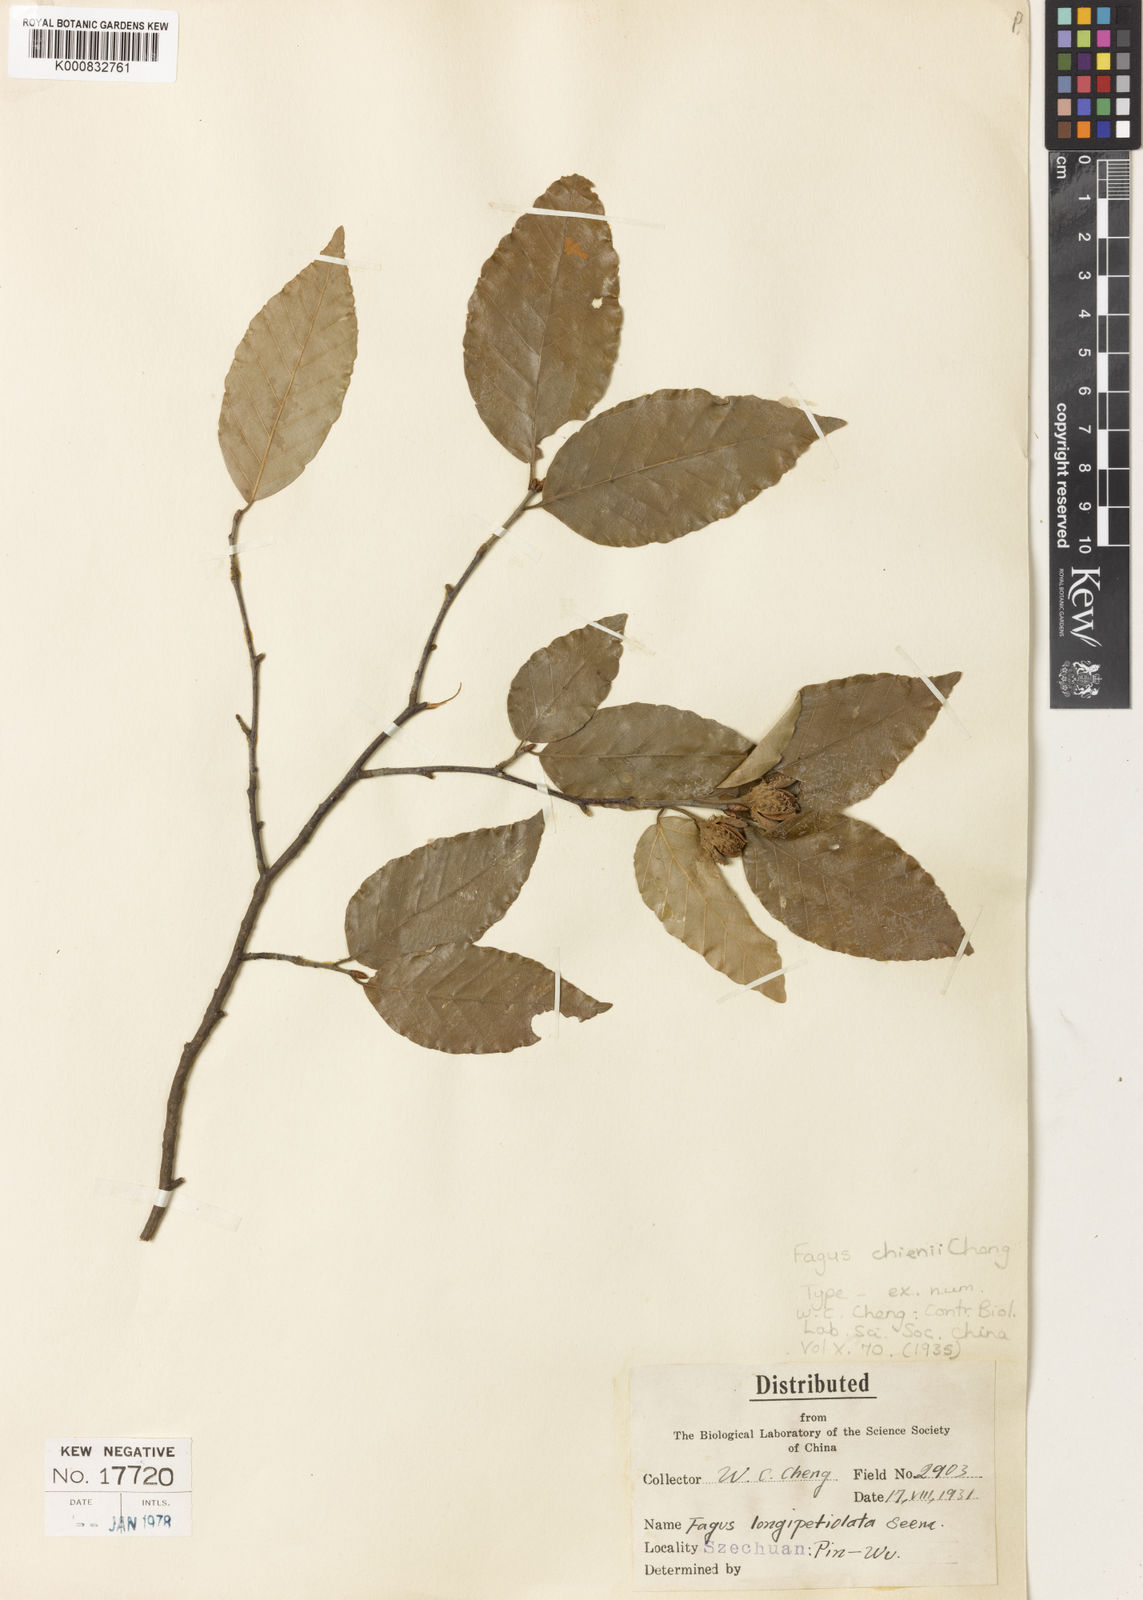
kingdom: Plantae
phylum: Tracheophyta
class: Magnoliopsida
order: Fagales
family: Fagaceae
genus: Fagus
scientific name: Fagus chienii
